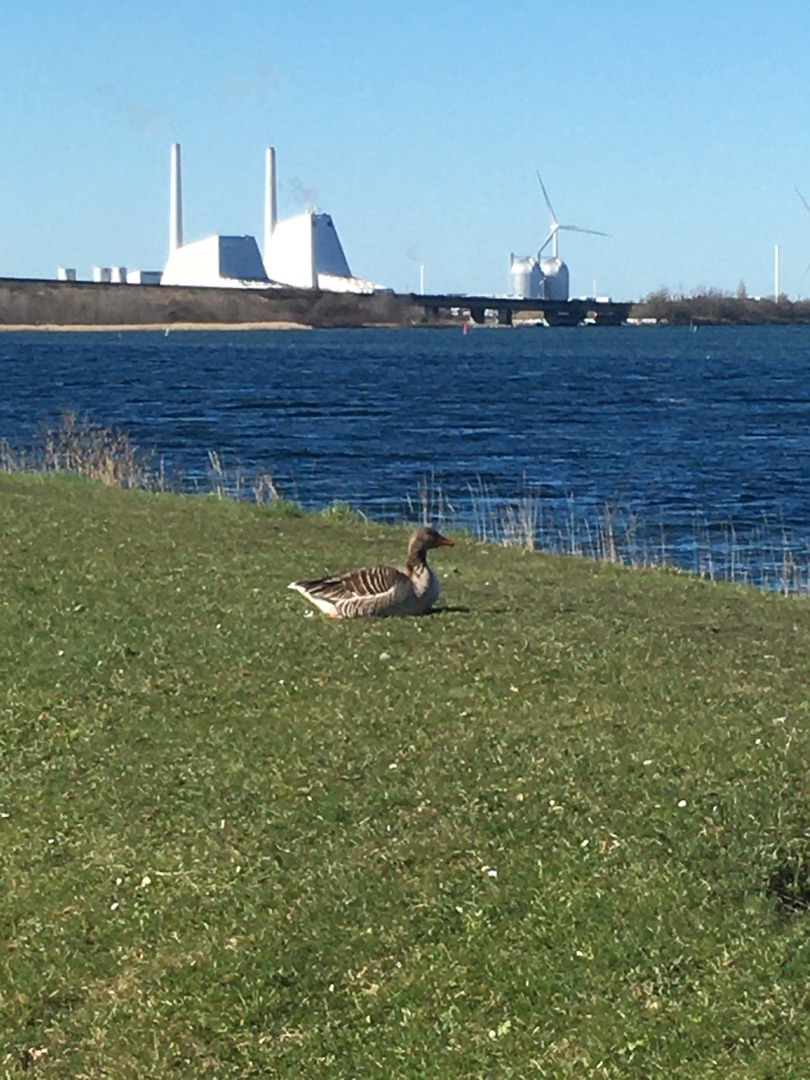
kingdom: Animalia
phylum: Chordata
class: Aves
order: Anseriformes
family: Anatidae
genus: Anser
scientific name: Anser anser
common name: Grågås
